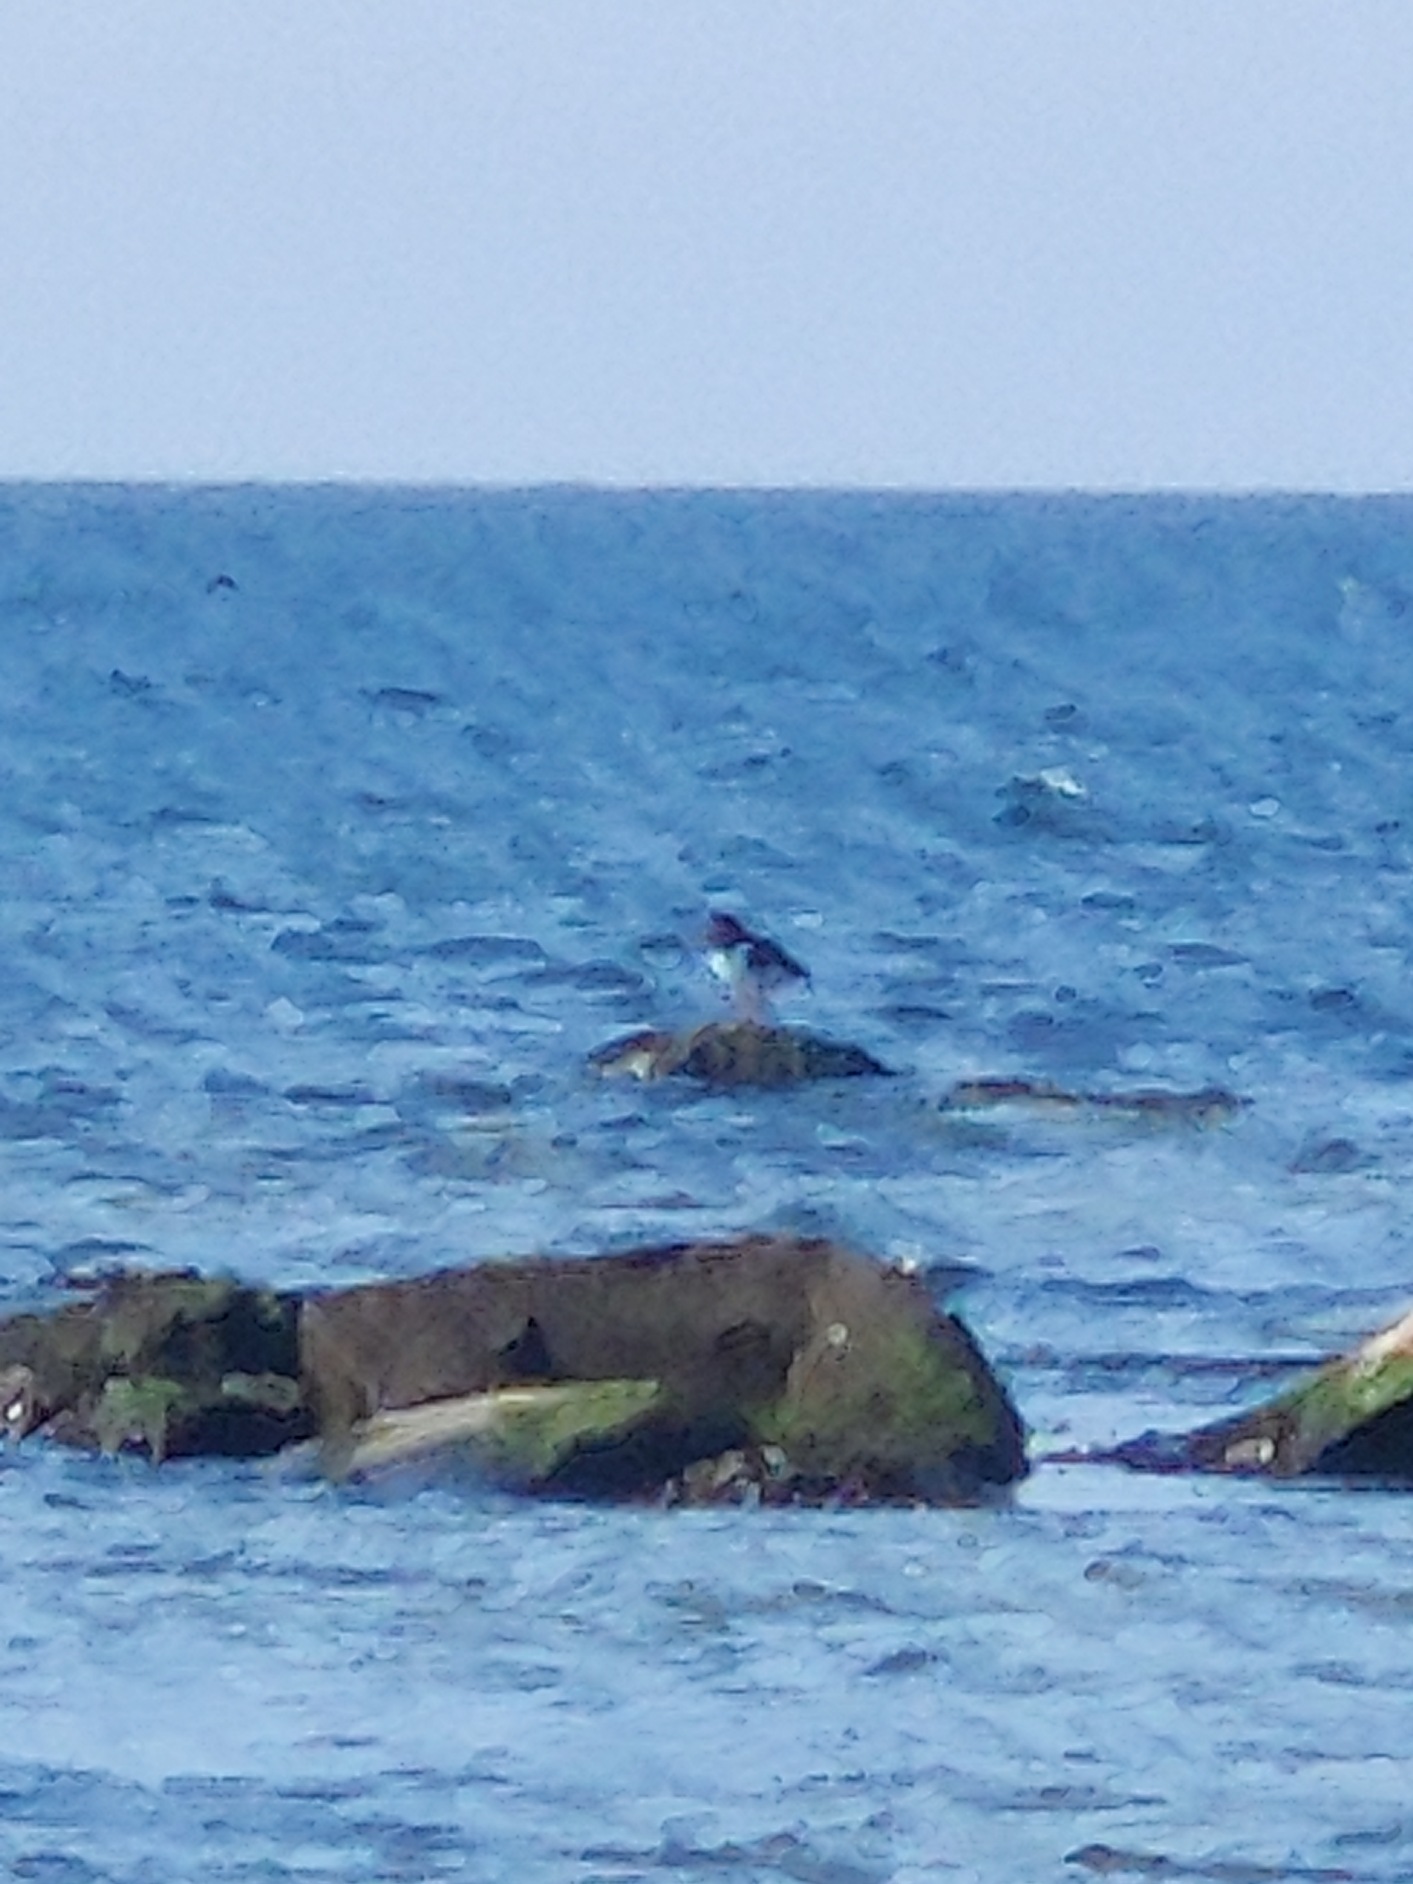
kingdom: Animalia
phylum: Chordata
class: Aves
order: Charadriiformes
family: Haematopodidae
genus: Haematopus
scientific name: Haematopus ostralegus
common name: Strandskade
